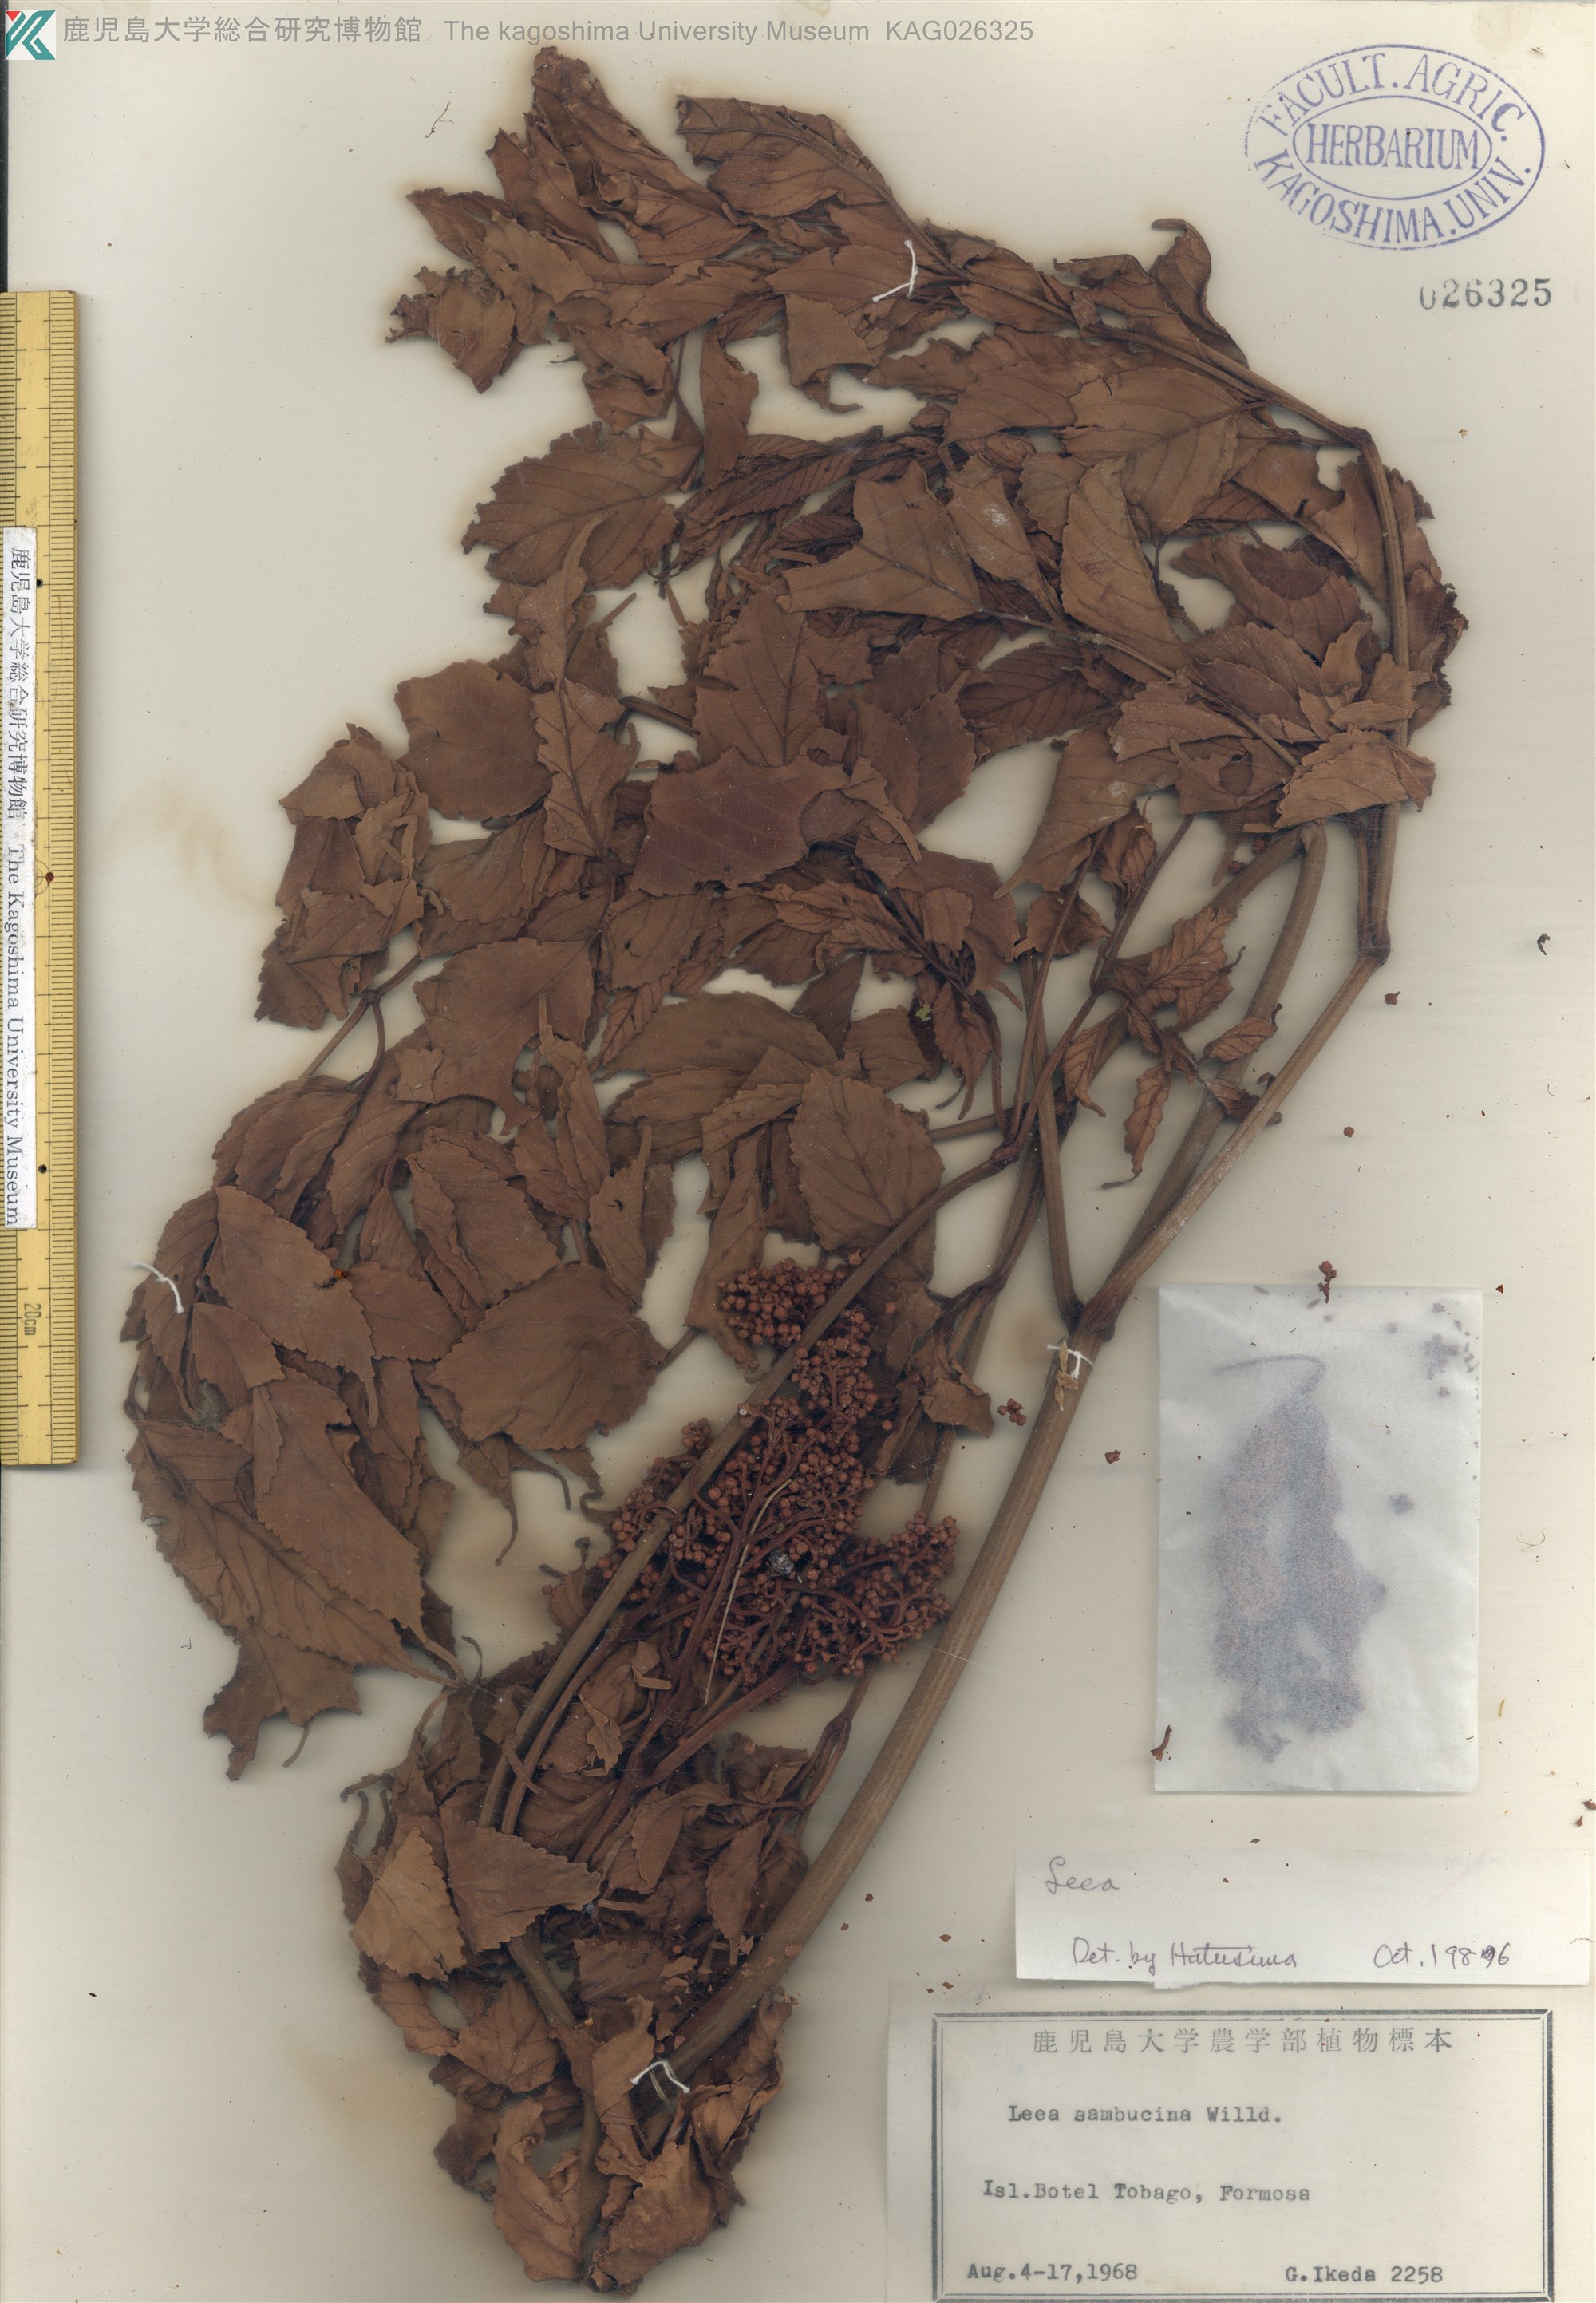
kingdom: Plantae
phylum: Tracheophyta
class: Magnoliopsida
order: Vitales
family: Vitaceae
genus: Leea
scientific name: Leea
